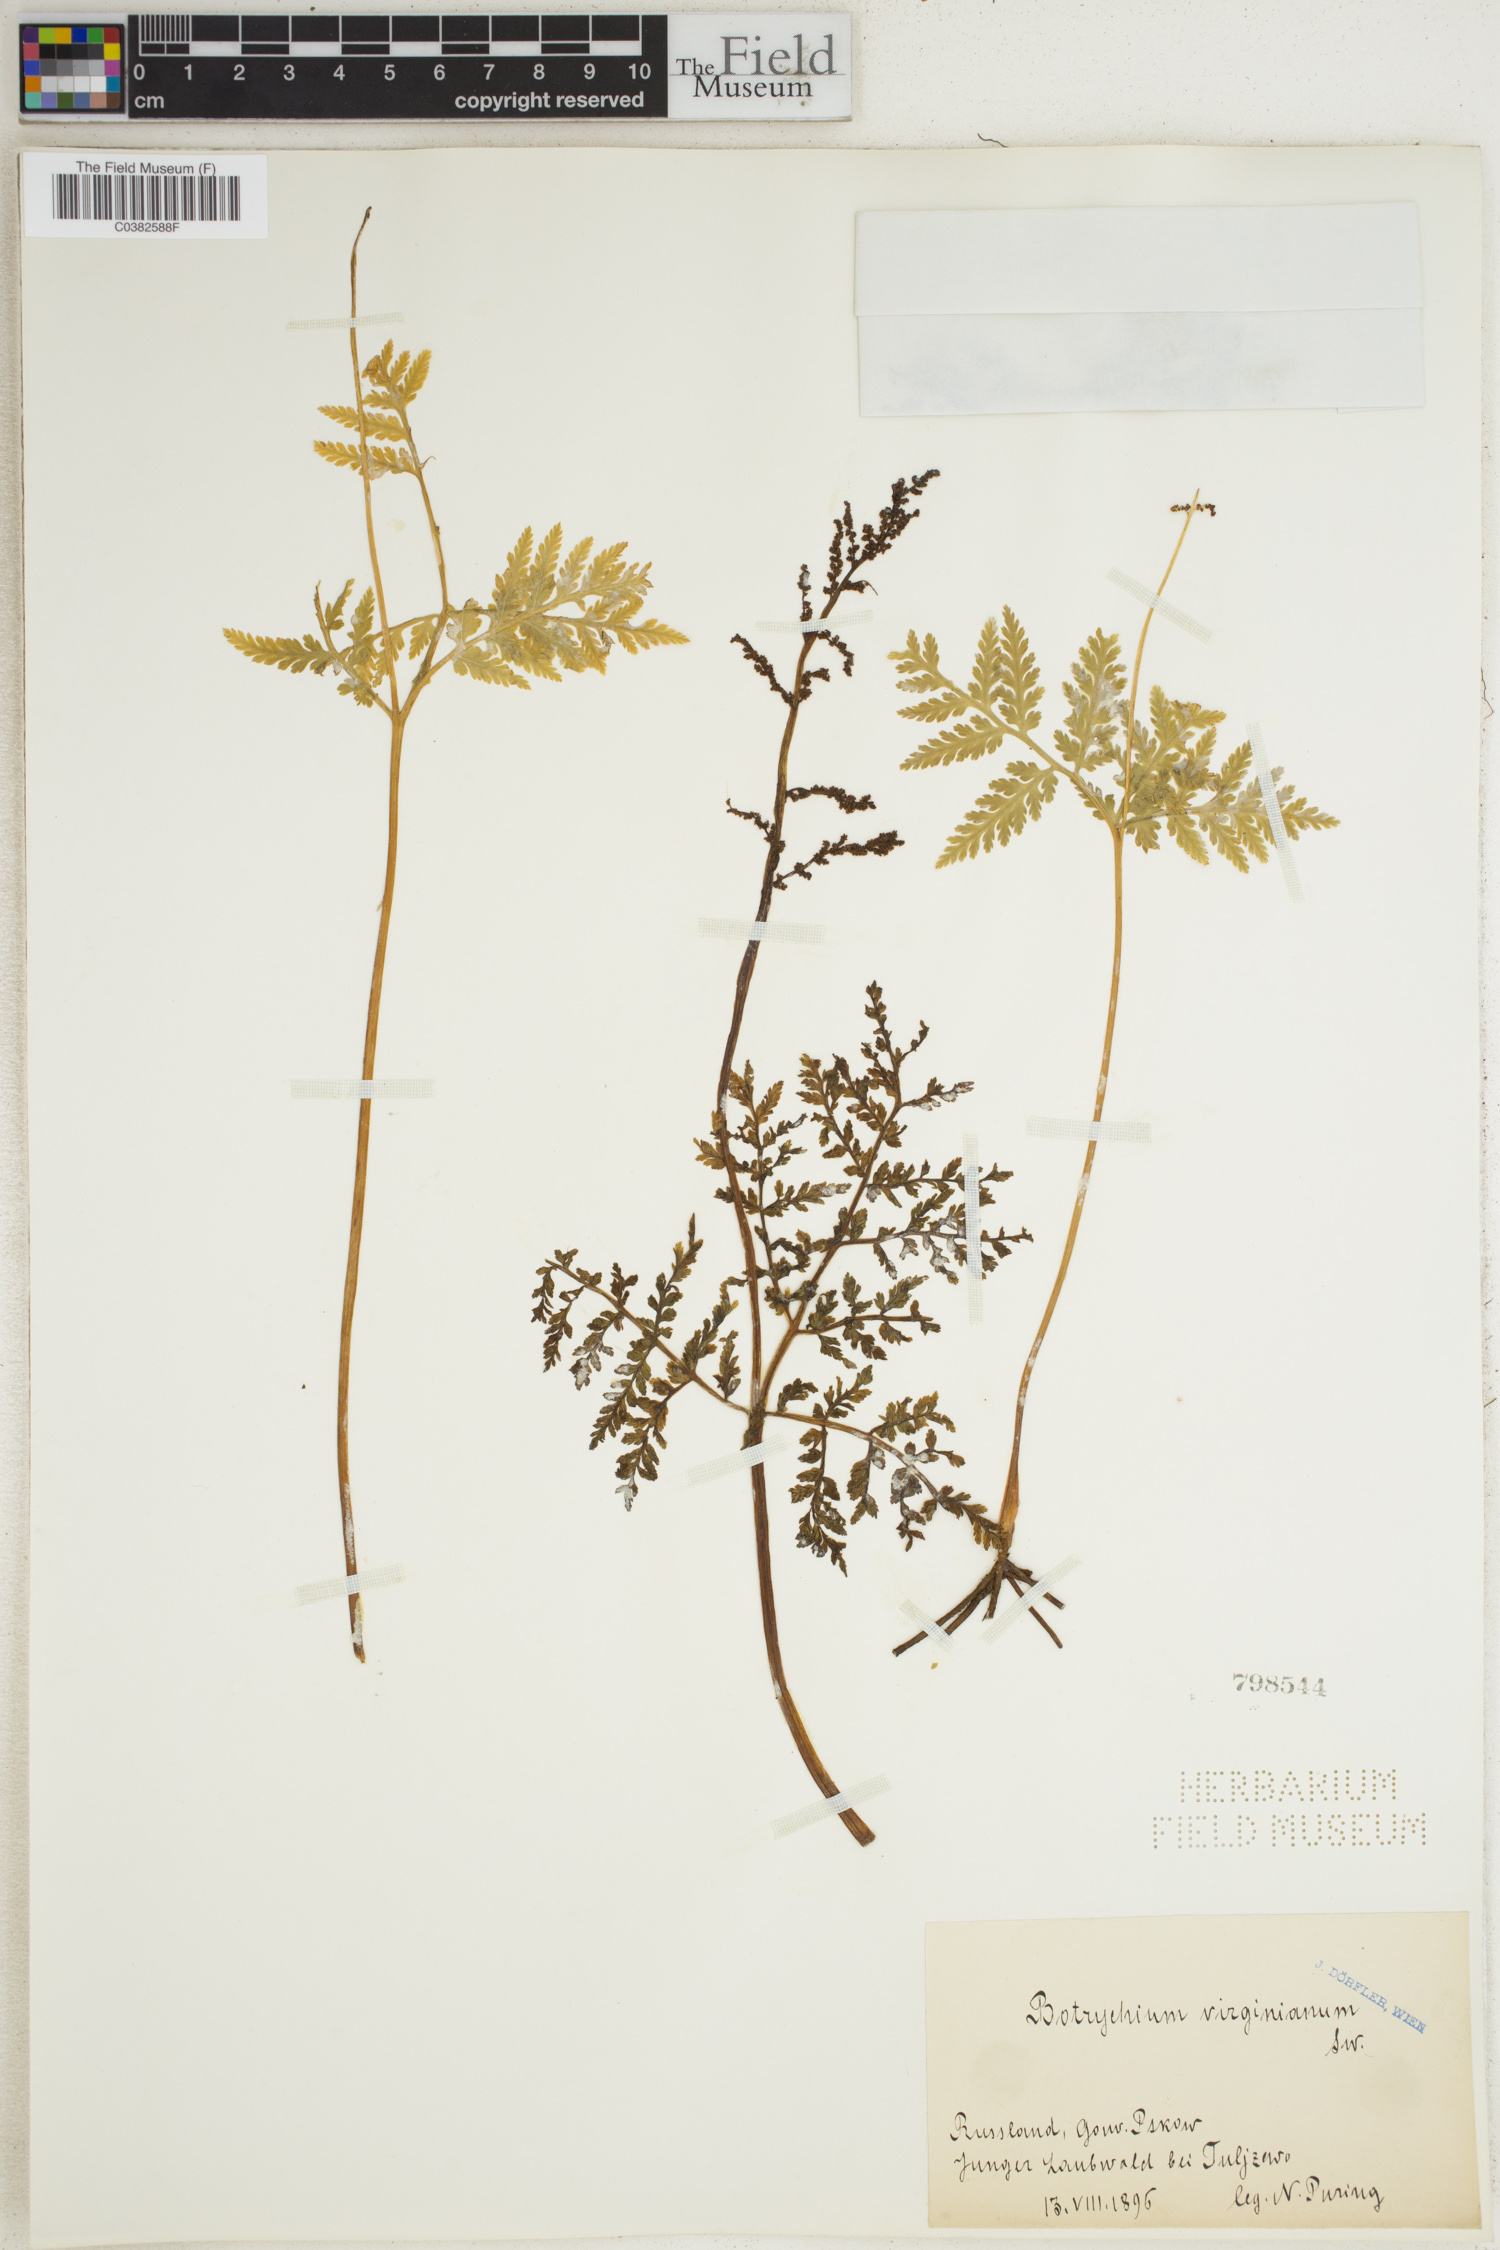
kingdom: Plantae
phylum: Tracheophyta
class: Polypodiopsida
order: Ophioglossales
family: Ophioglossaceae
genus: Botrypus
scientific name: Botrypus virginianus
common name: Common grapefern
